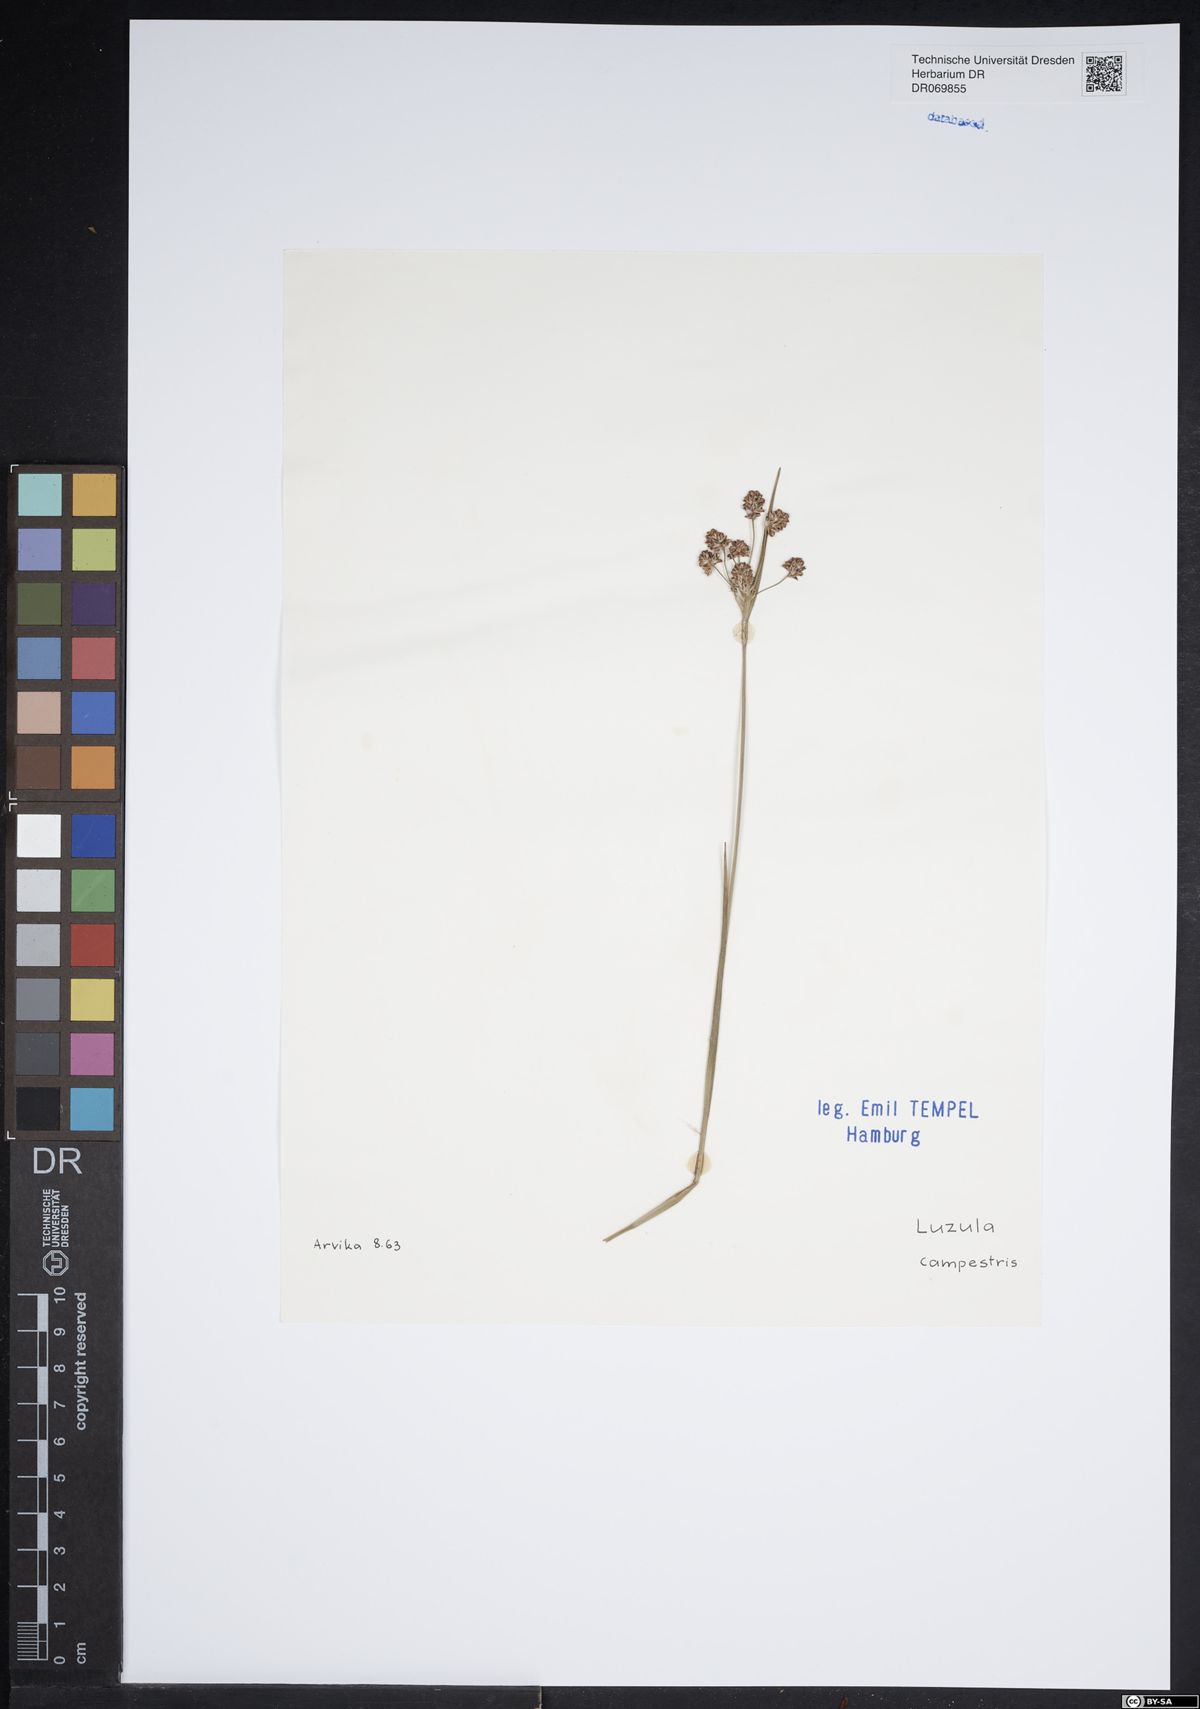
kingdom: Plantae
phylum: Tracheophyta
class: Liliopsida
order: Poales
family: Juncaceae
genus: Luzula
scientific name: Luzula campestris
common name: Field wood-rush
